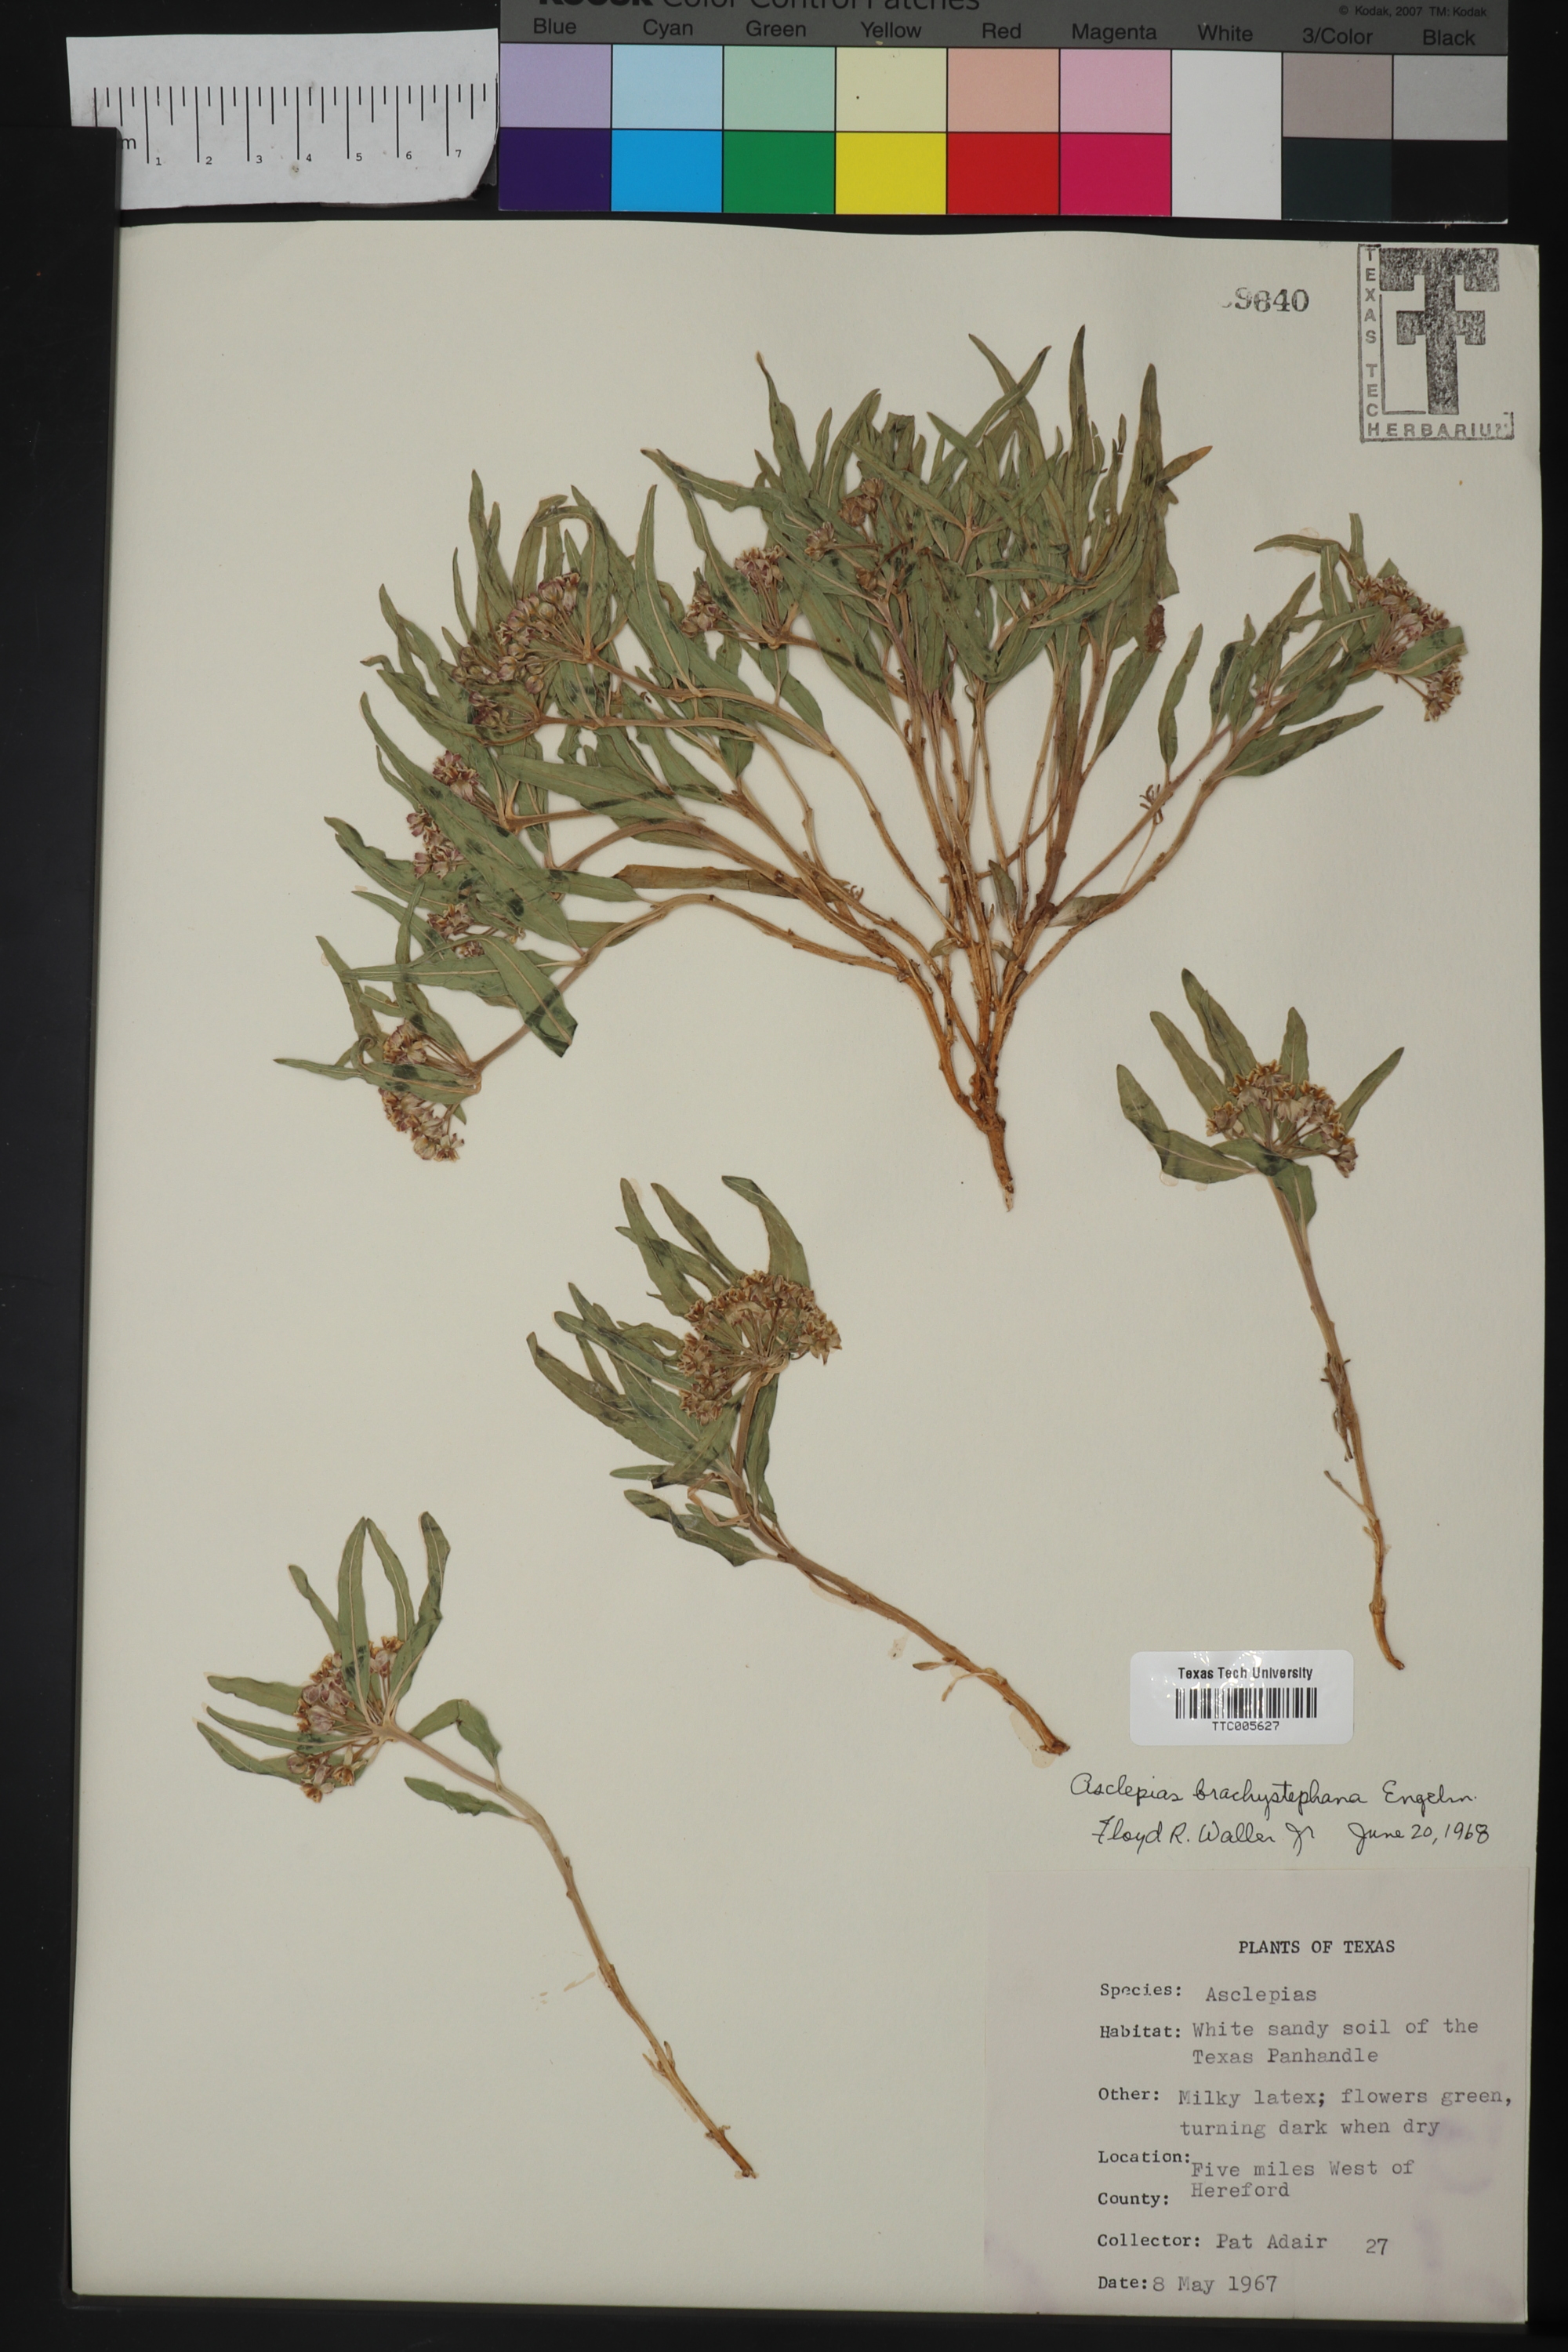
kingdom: Plantae
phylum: Tracheophyta
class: Magnoliopsida
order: Gentianales
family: Apocynaceae
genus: Asclepias
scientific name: Asclepias brachystephana
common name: Shortcrown milkweed
